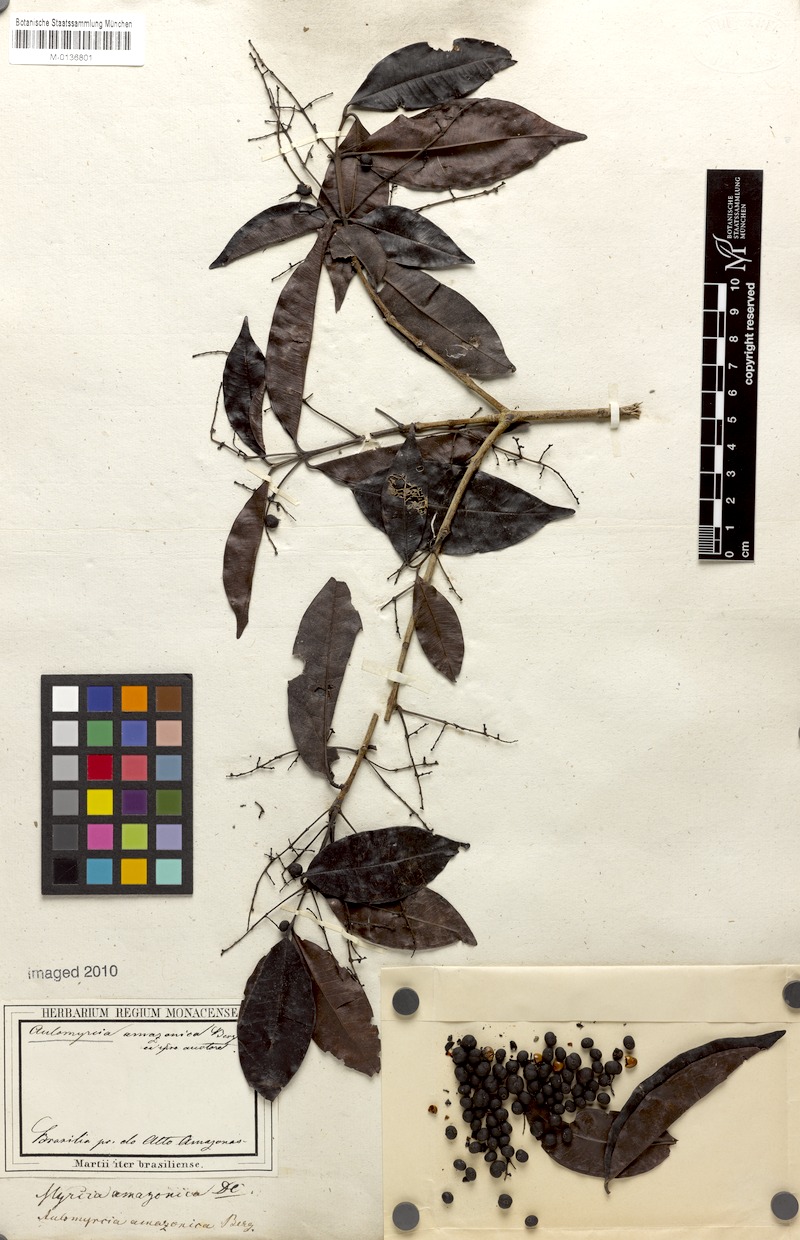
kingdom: Plantae
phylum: Tracheophyta
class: Magnoliopsida
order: Myrtales
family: Myrtaceae
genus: Myrcia
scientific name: Myrcia amazonica
